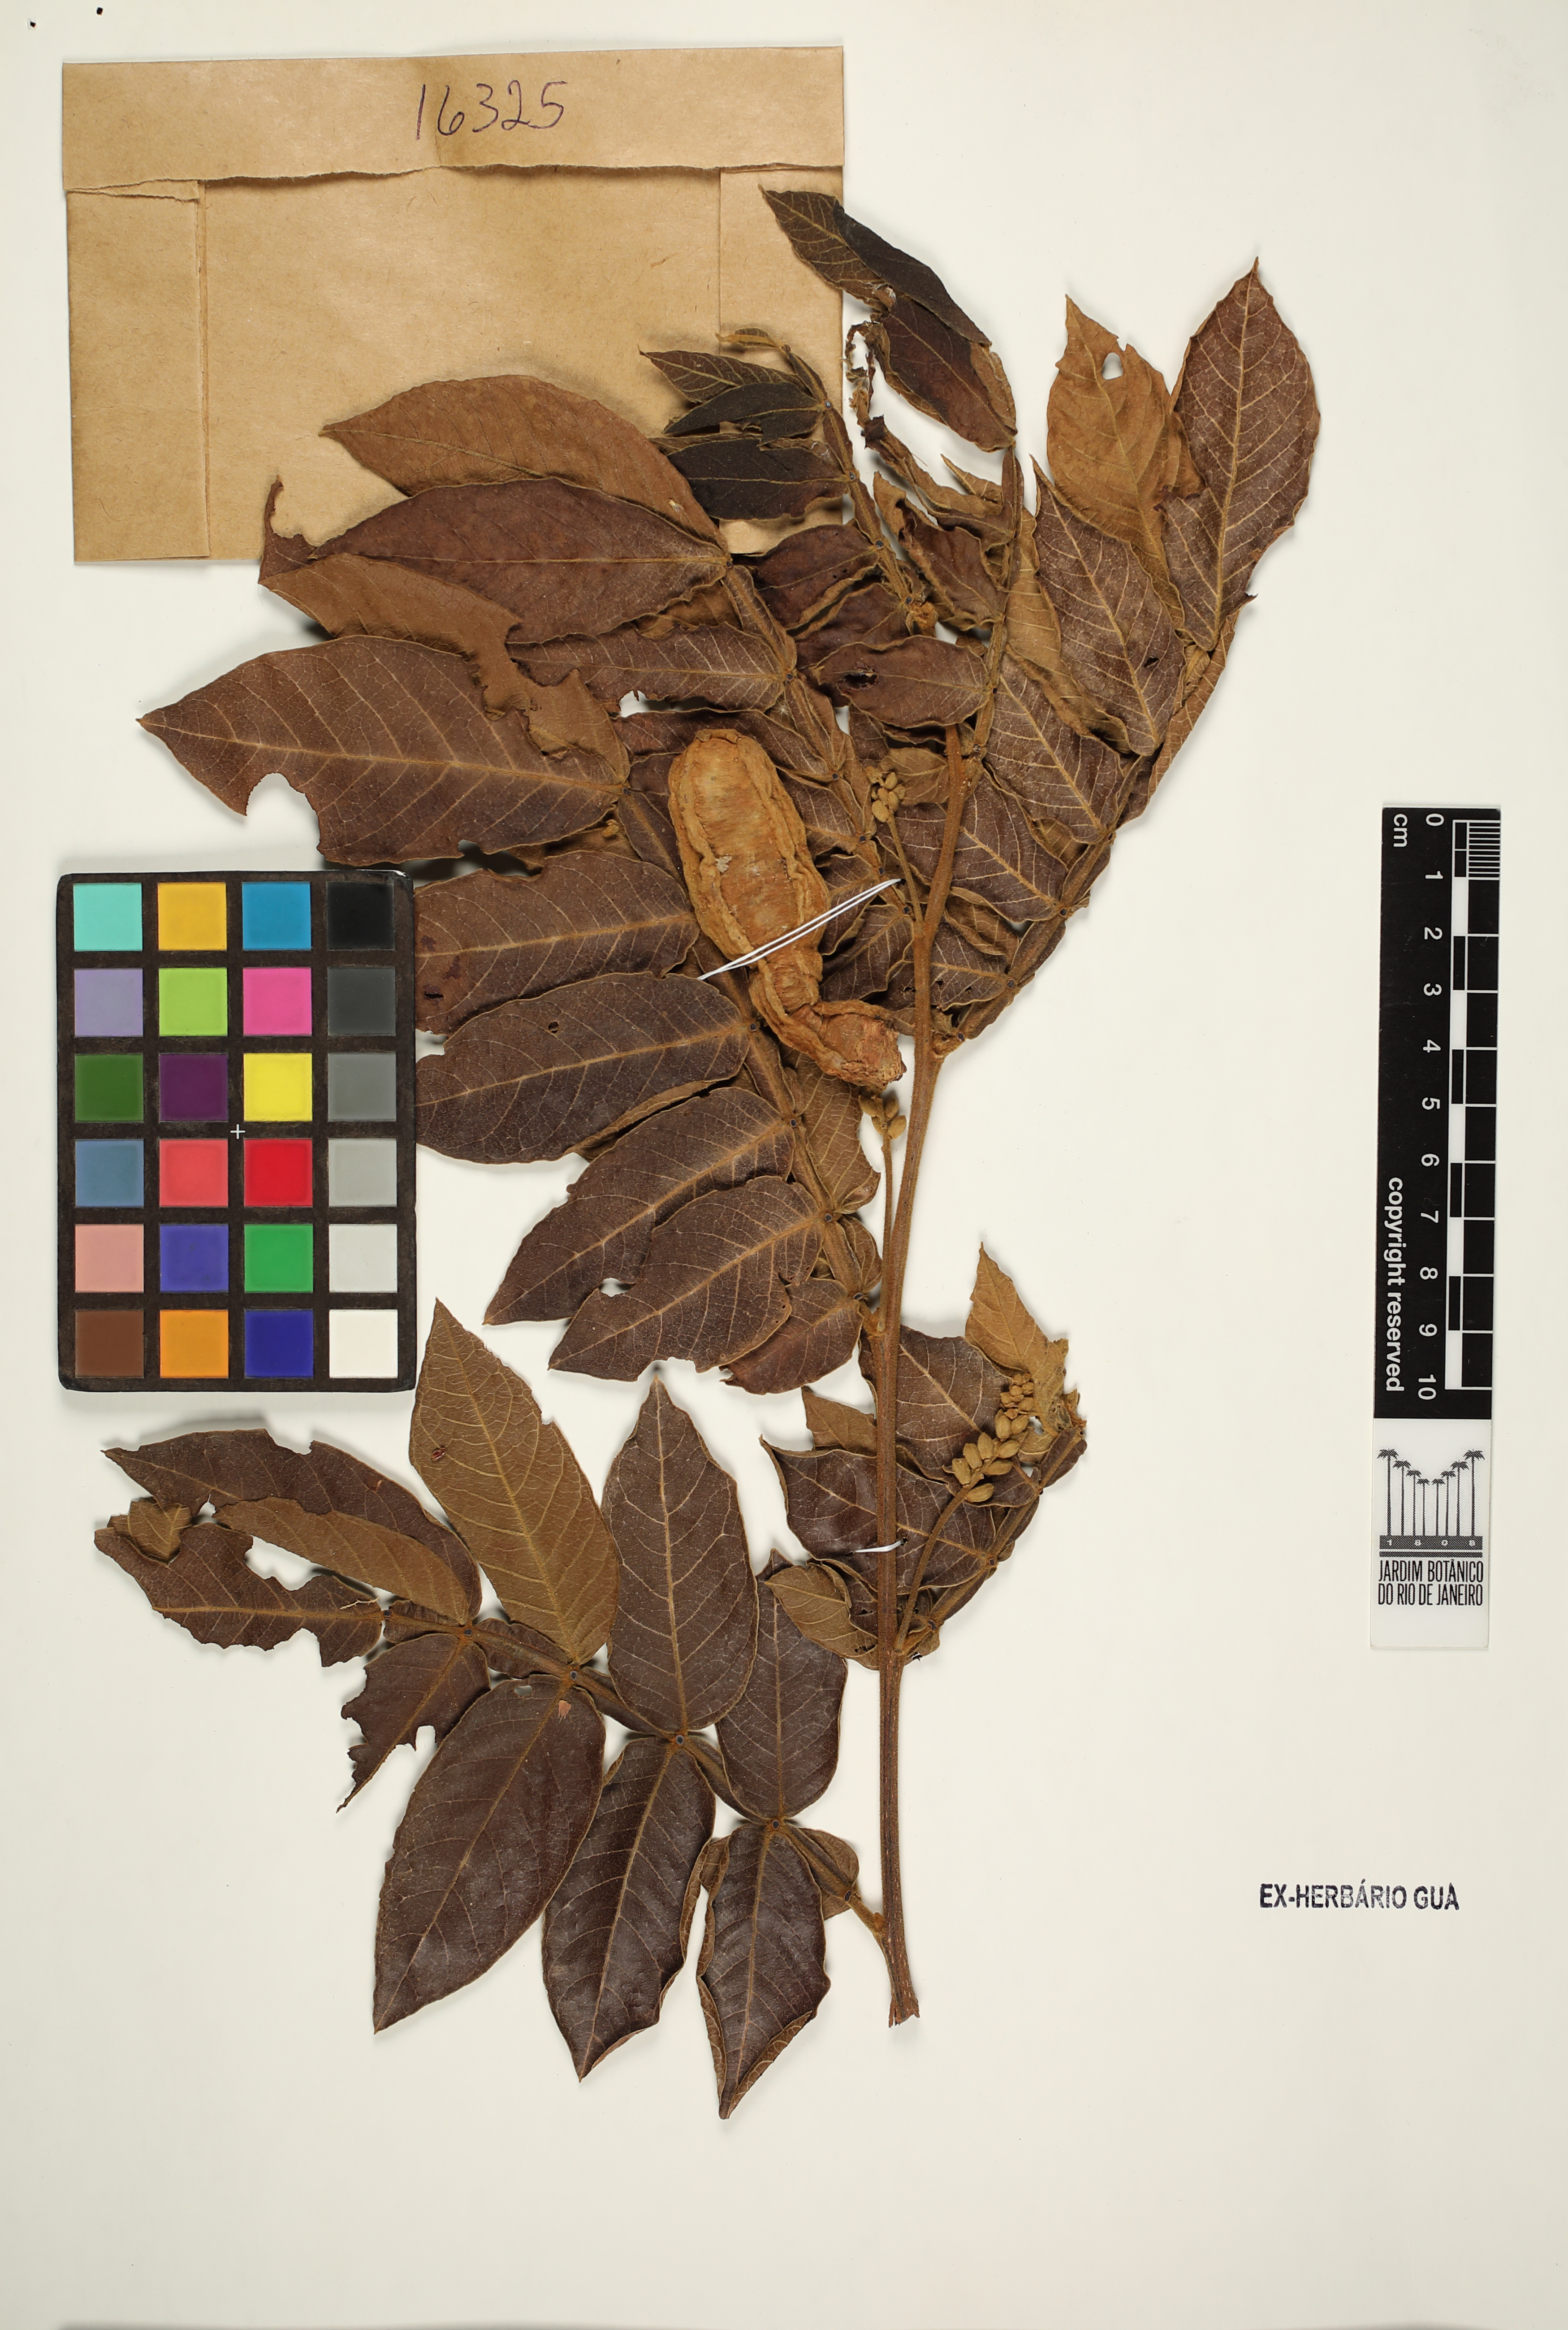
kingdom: Plantae
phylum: Tracheophyta
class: Magnoliopsida
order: Fabales
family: Fabaceae
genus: Inga
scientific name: Inga affinis
